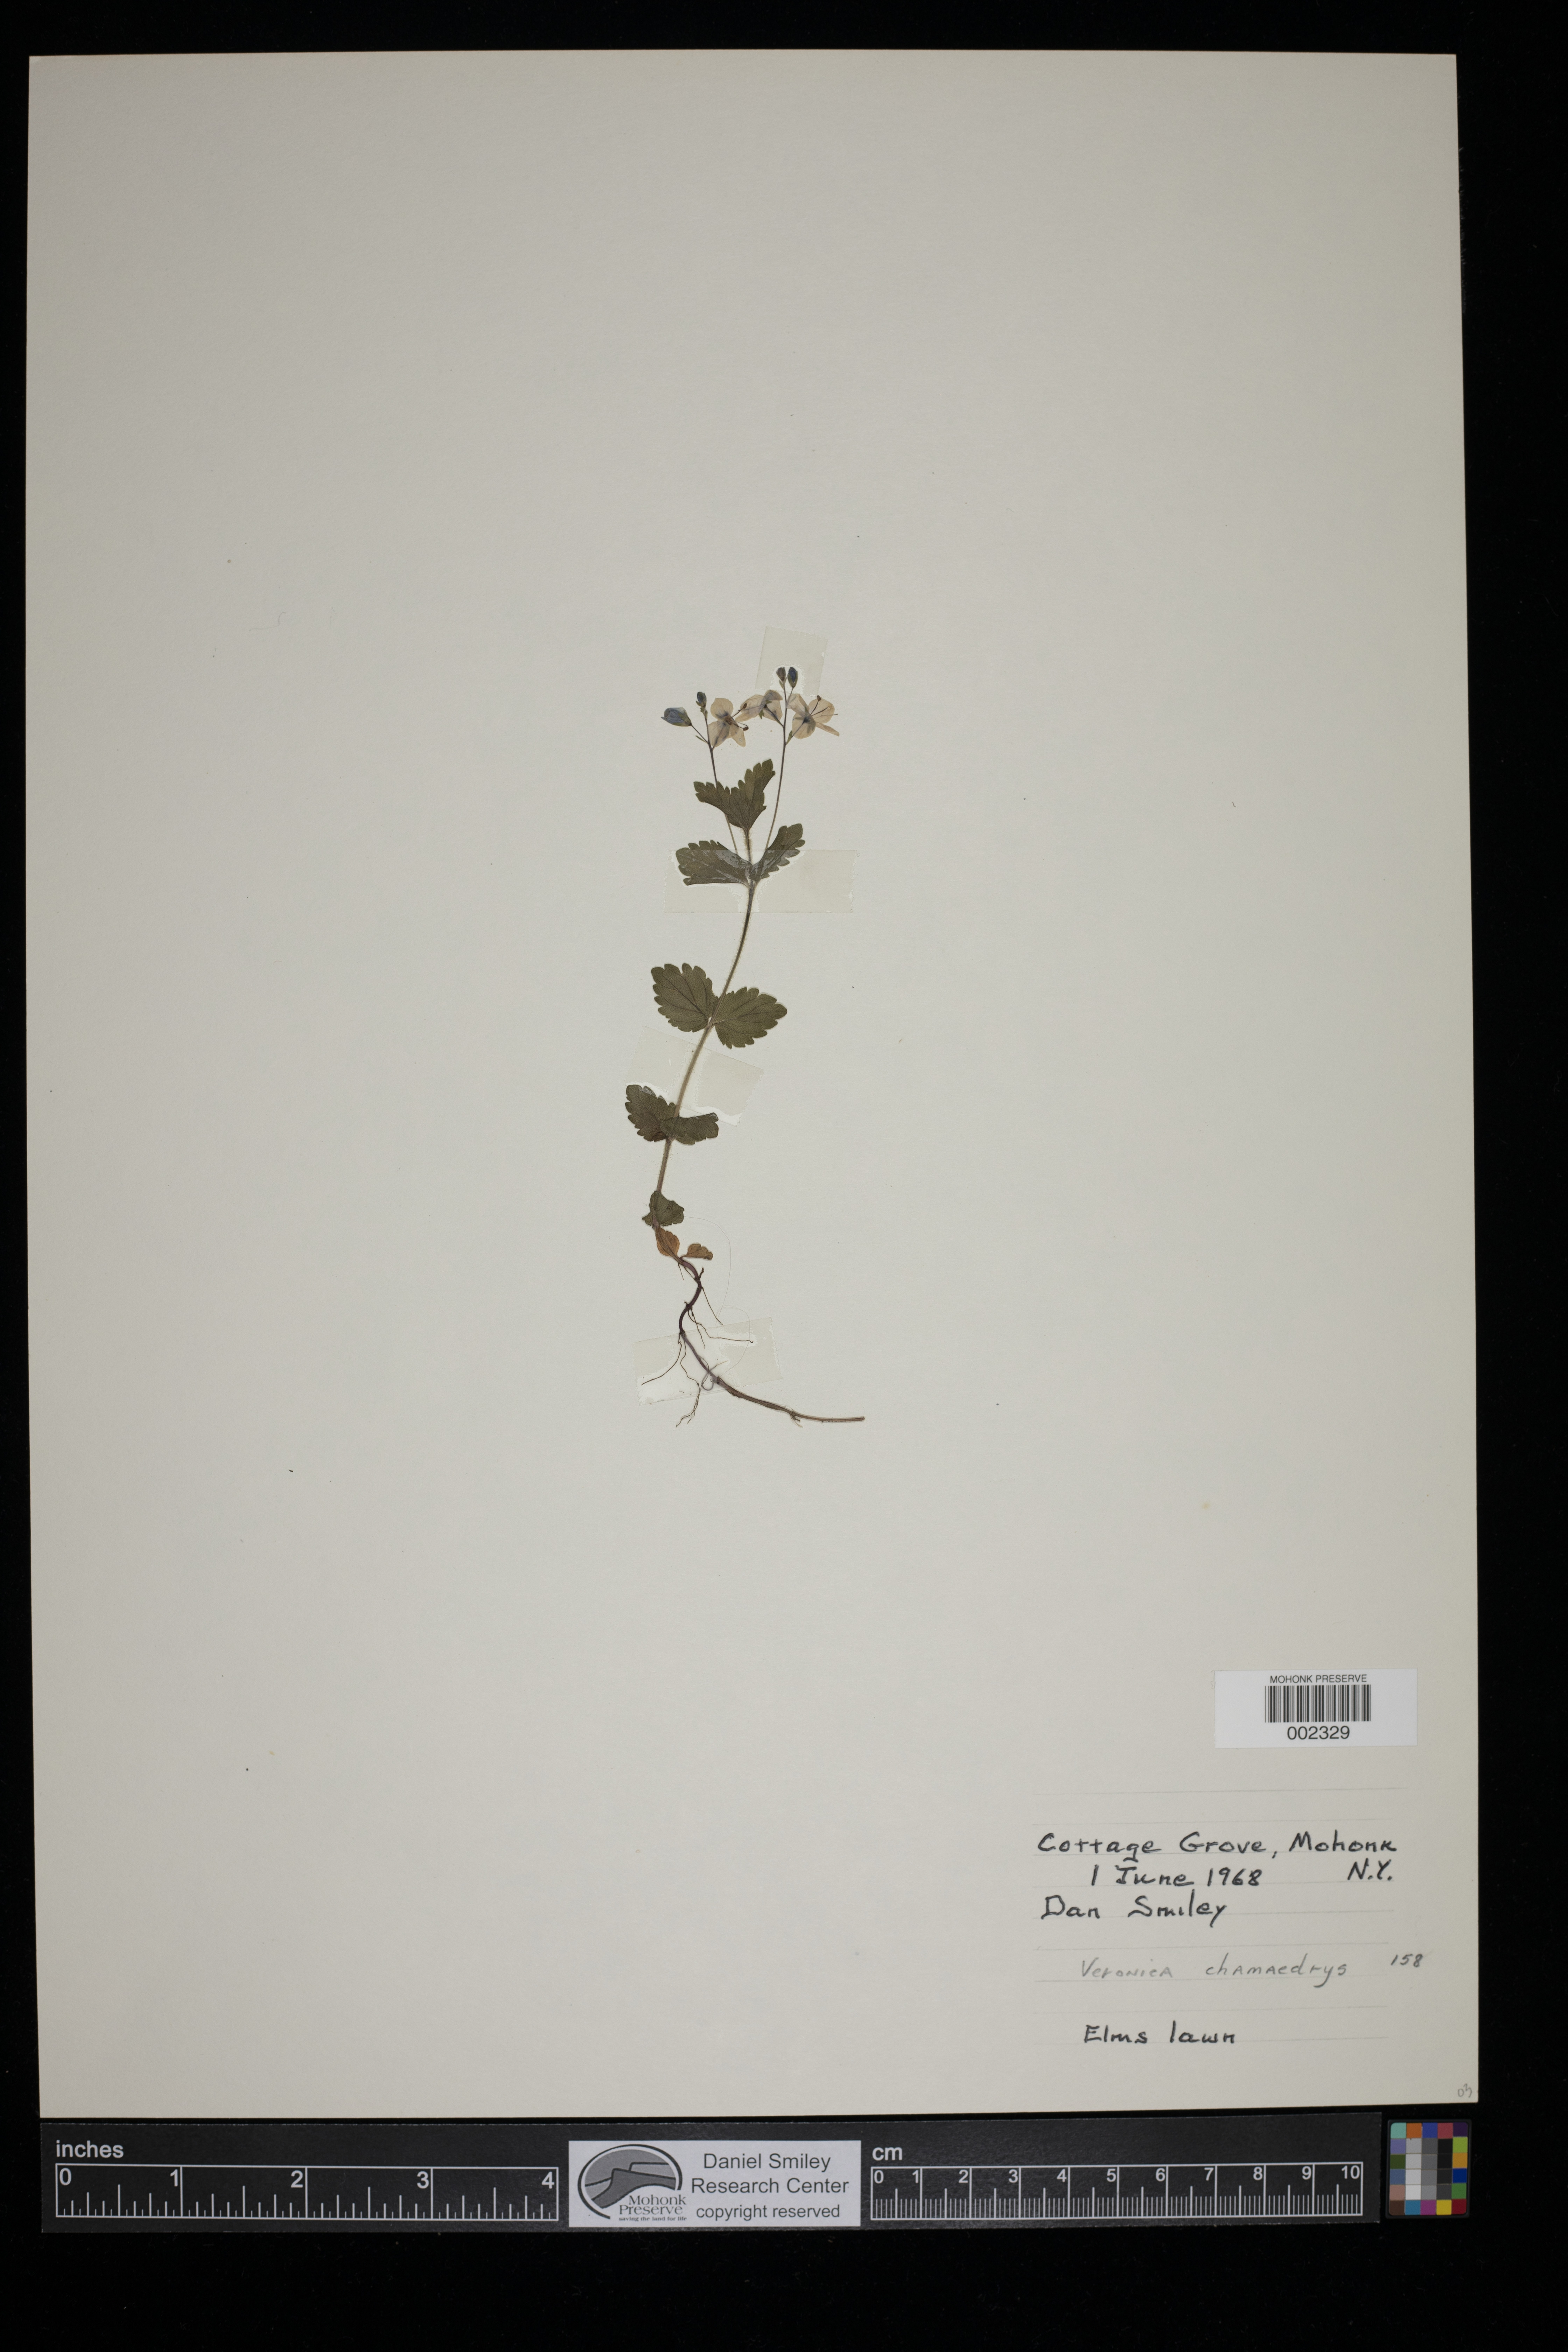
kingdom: Plantae
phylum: Tracheophyta
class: Magnoliopsida
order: Lamiales
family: Plantaginaceae
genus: Veronica
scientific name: Veronica chamaedrys
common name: Germander speedwell
